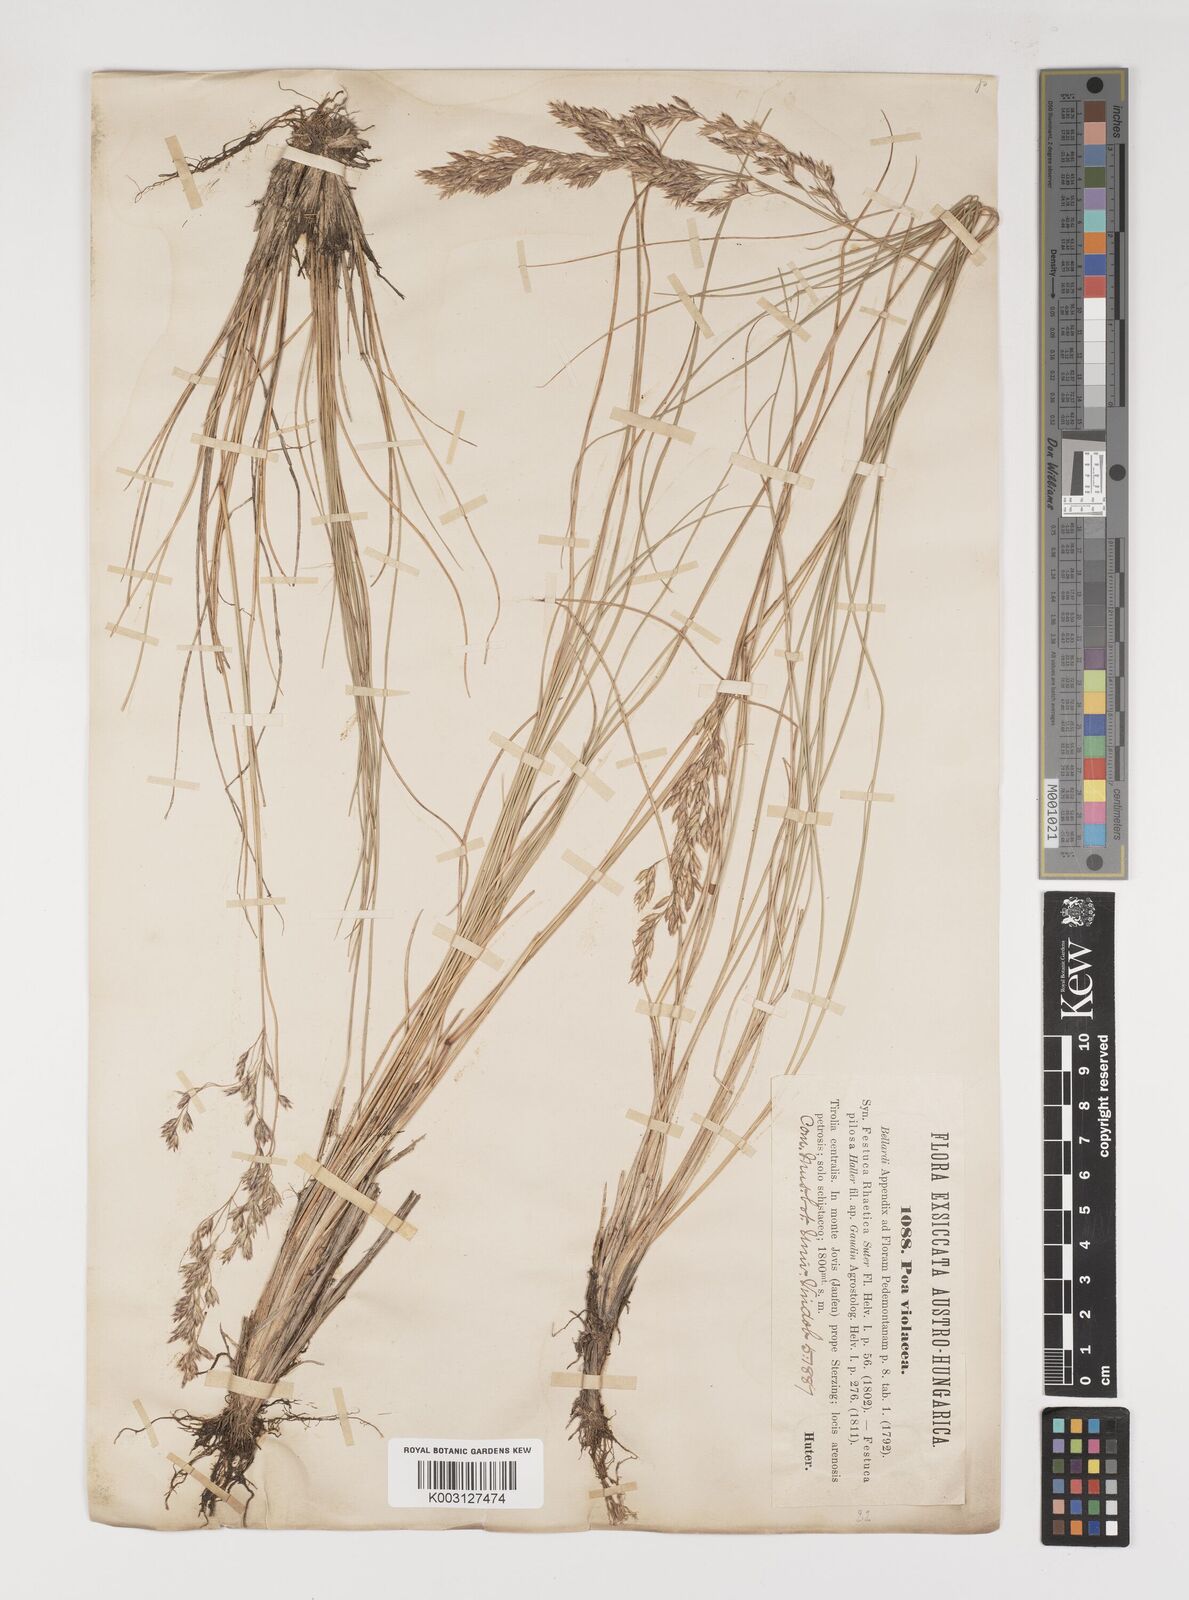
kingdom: Plantae
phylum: Tracheophyta
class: Liliopsida
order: Poales
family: Poaceae
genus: Bellardiochloa
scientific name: Bellardiochloa variegata
